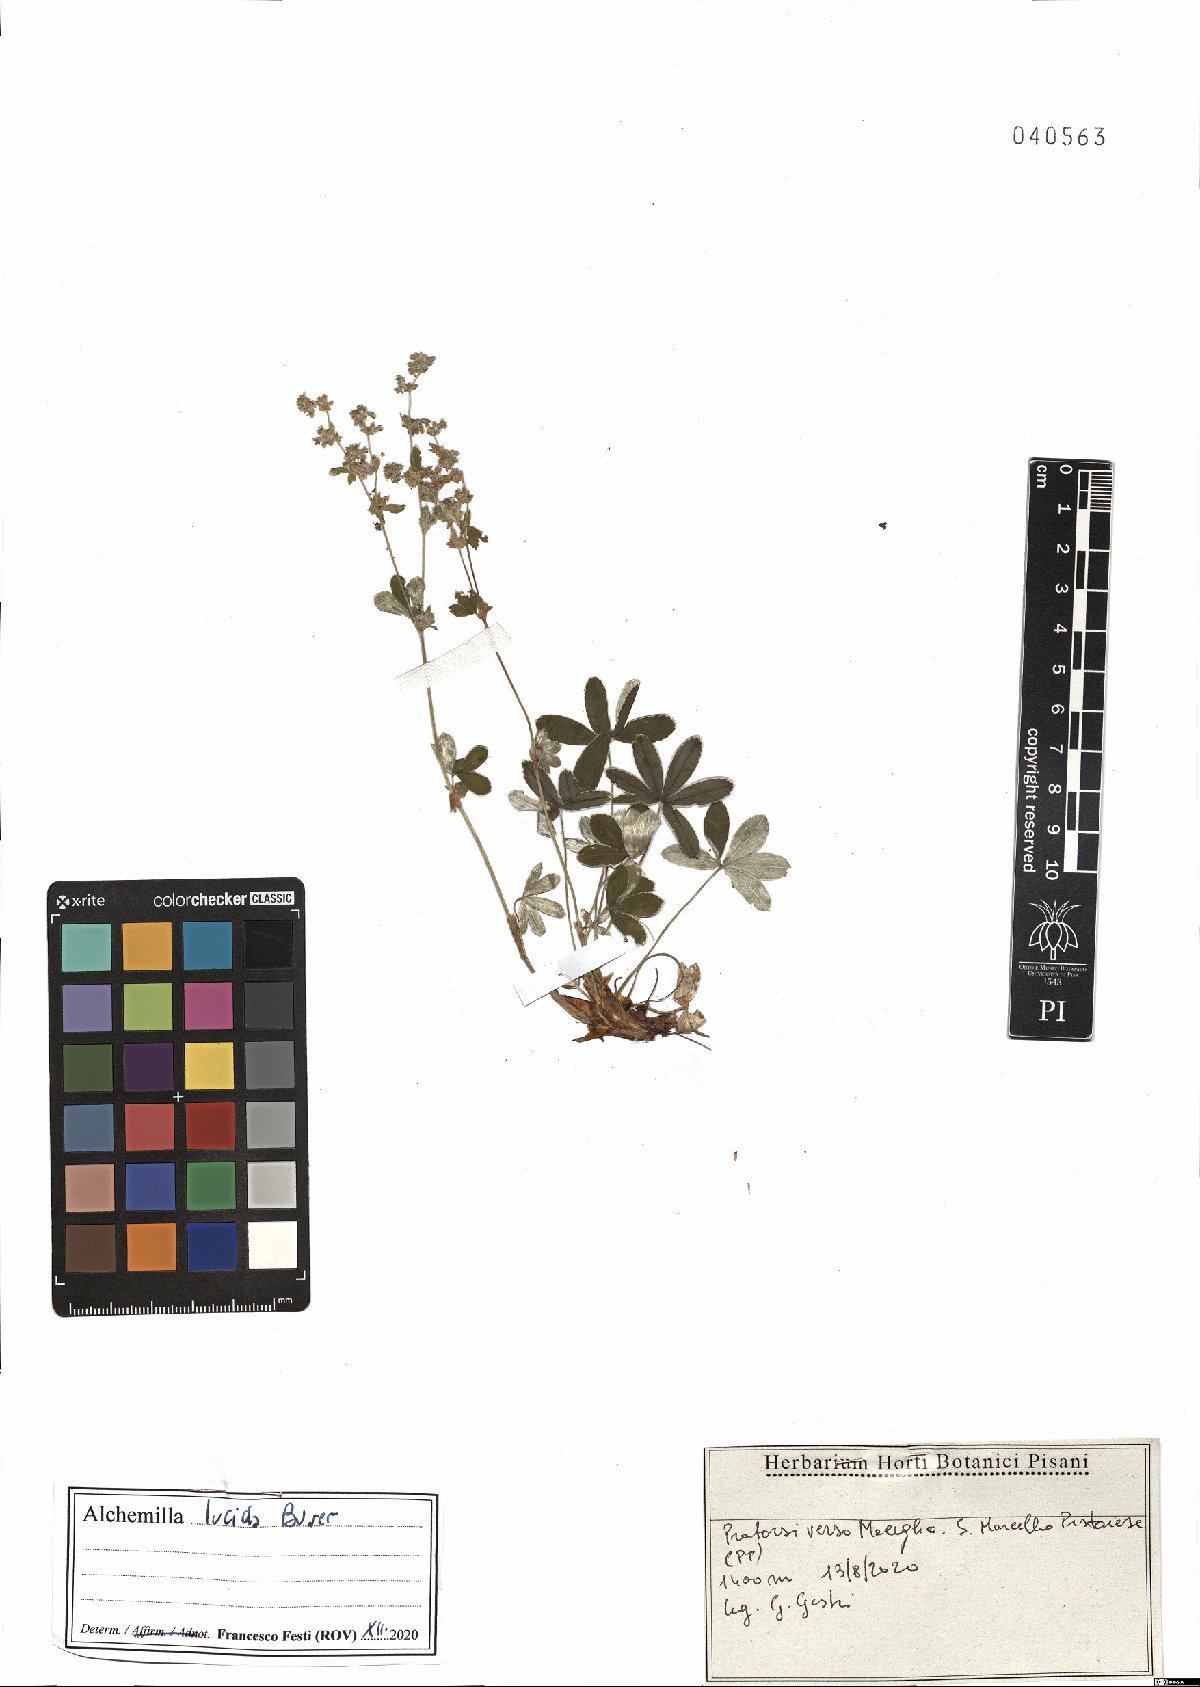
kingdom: Plantae
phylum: Tracheophyta
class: Magnoliopsida
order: Rosales
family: Rosaceae
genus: Alchemilla
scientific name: Alchemilla lucida
